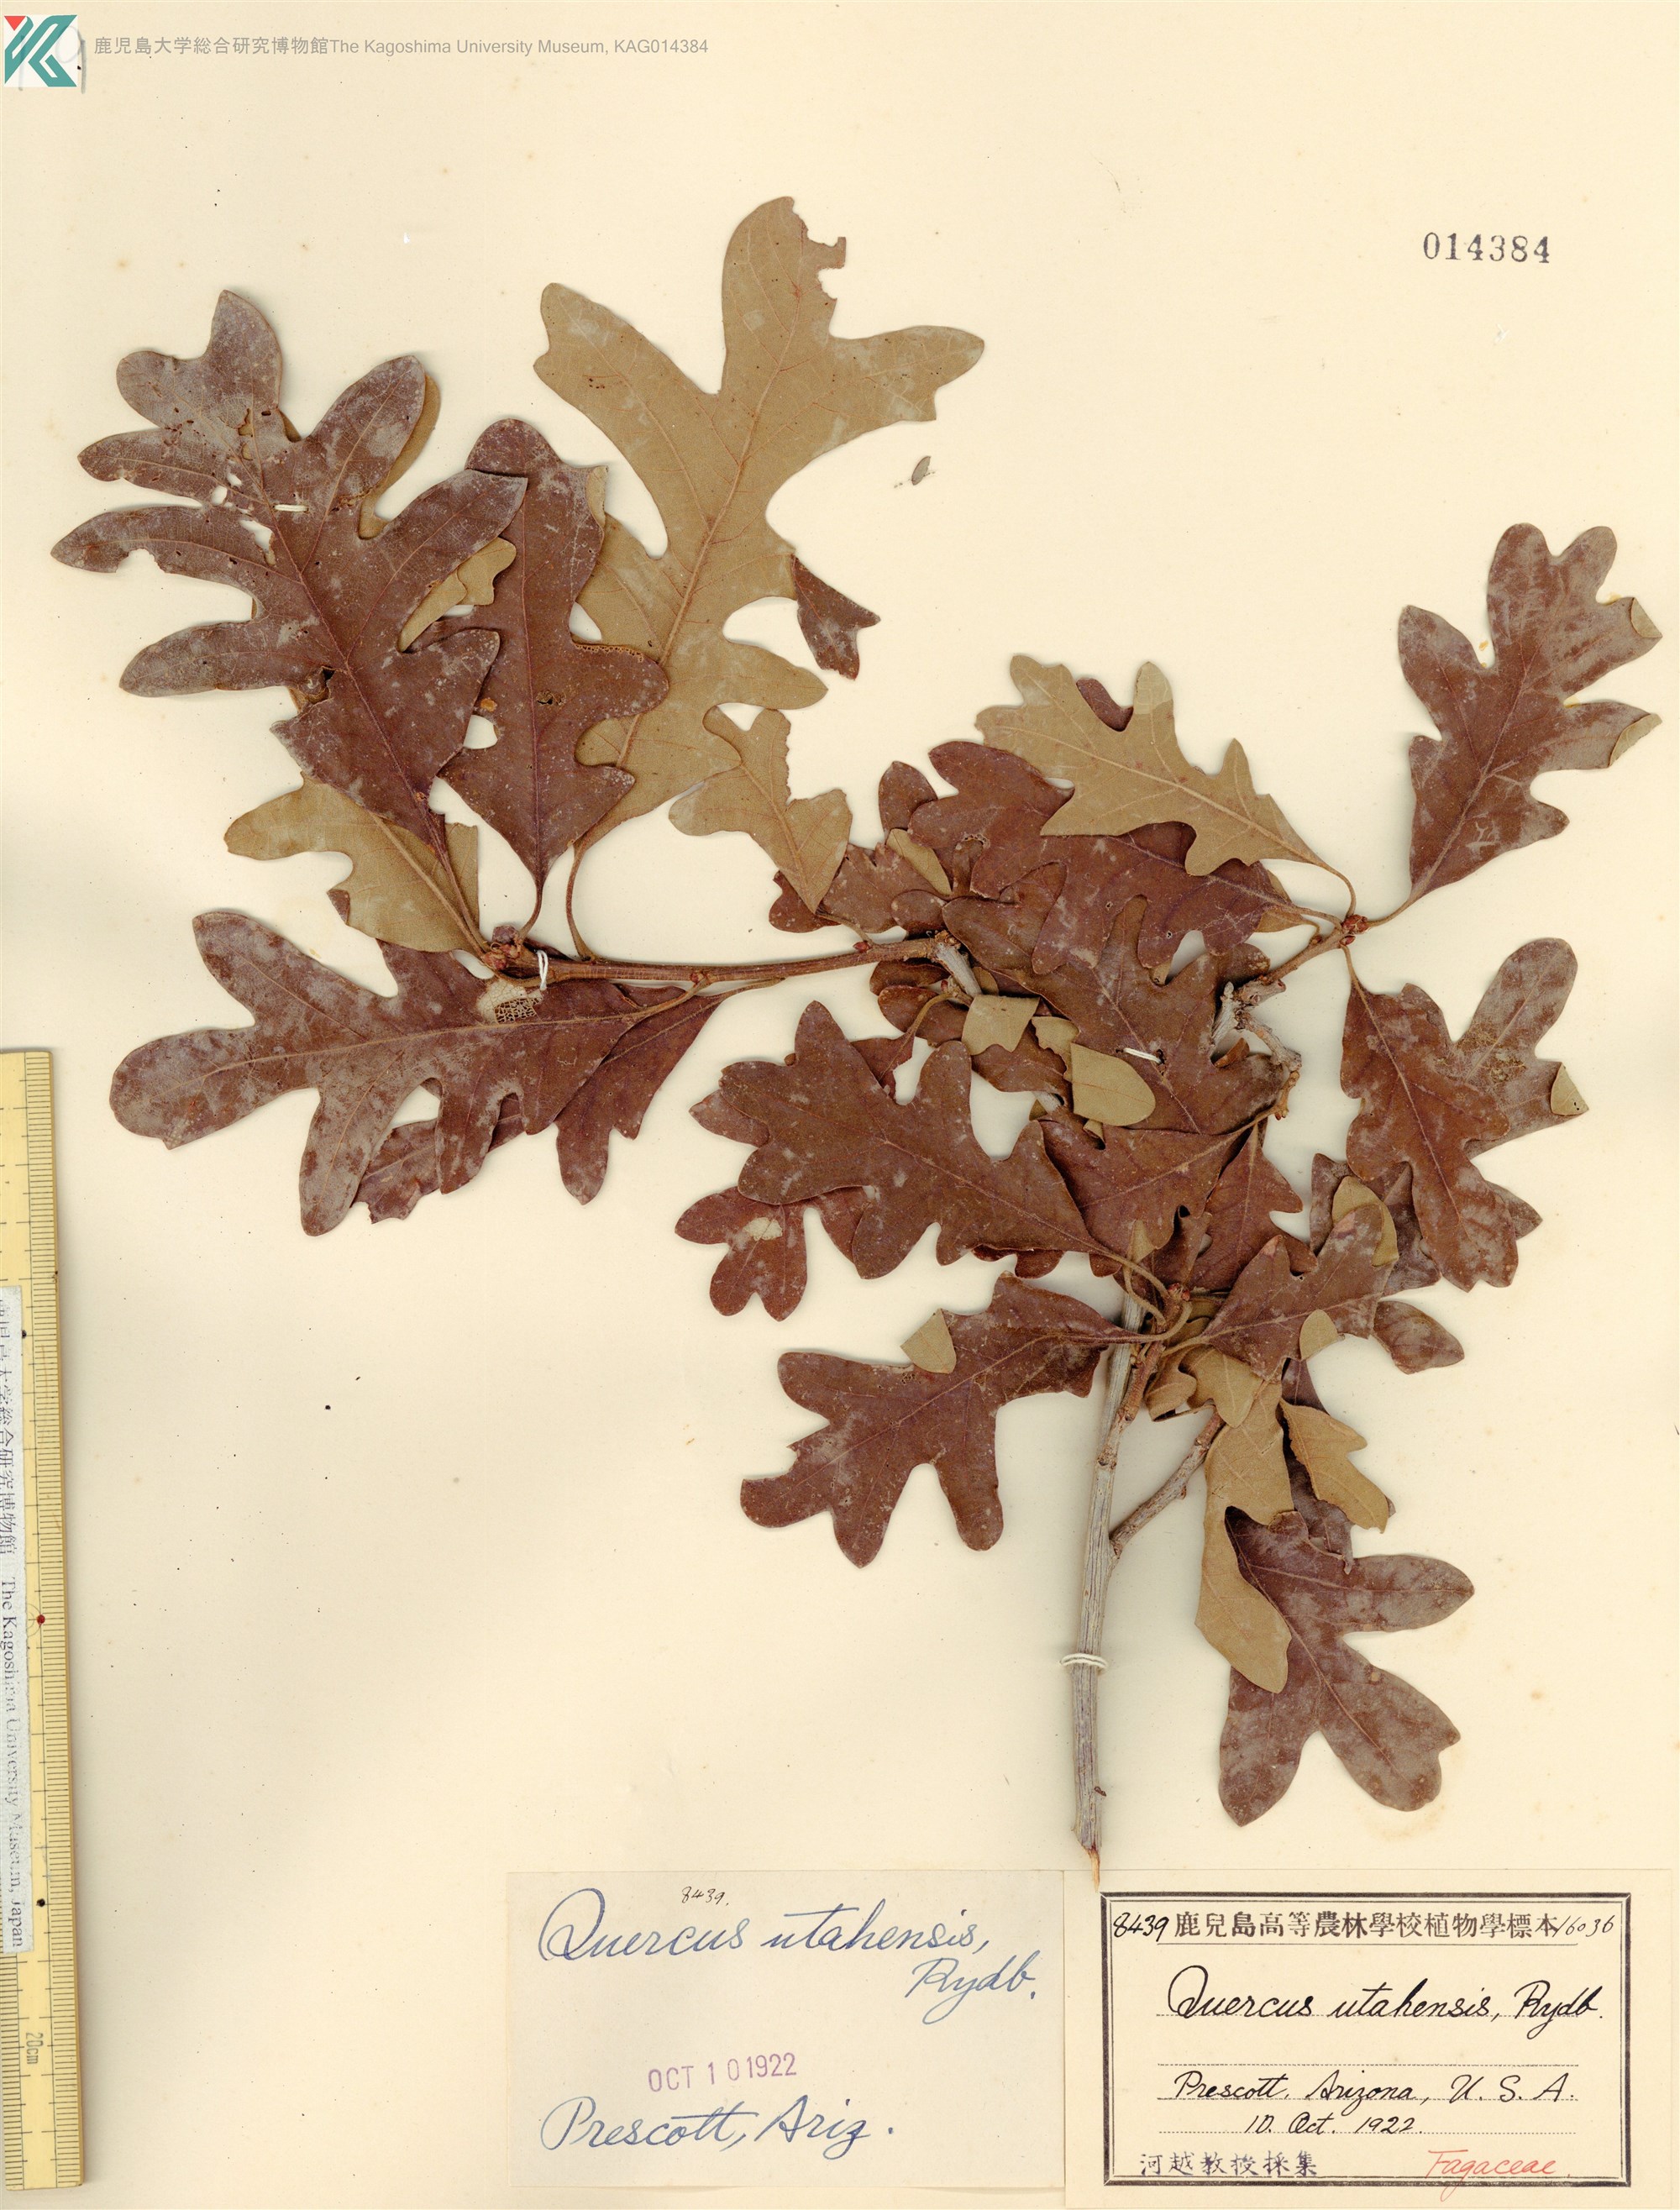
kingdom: Plantae
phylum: Tracheophyta
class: Magnoliopsida
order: Fagales
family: Fagaceae
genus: Quercus
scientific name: Quercus gambelii
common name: Gambel oak
